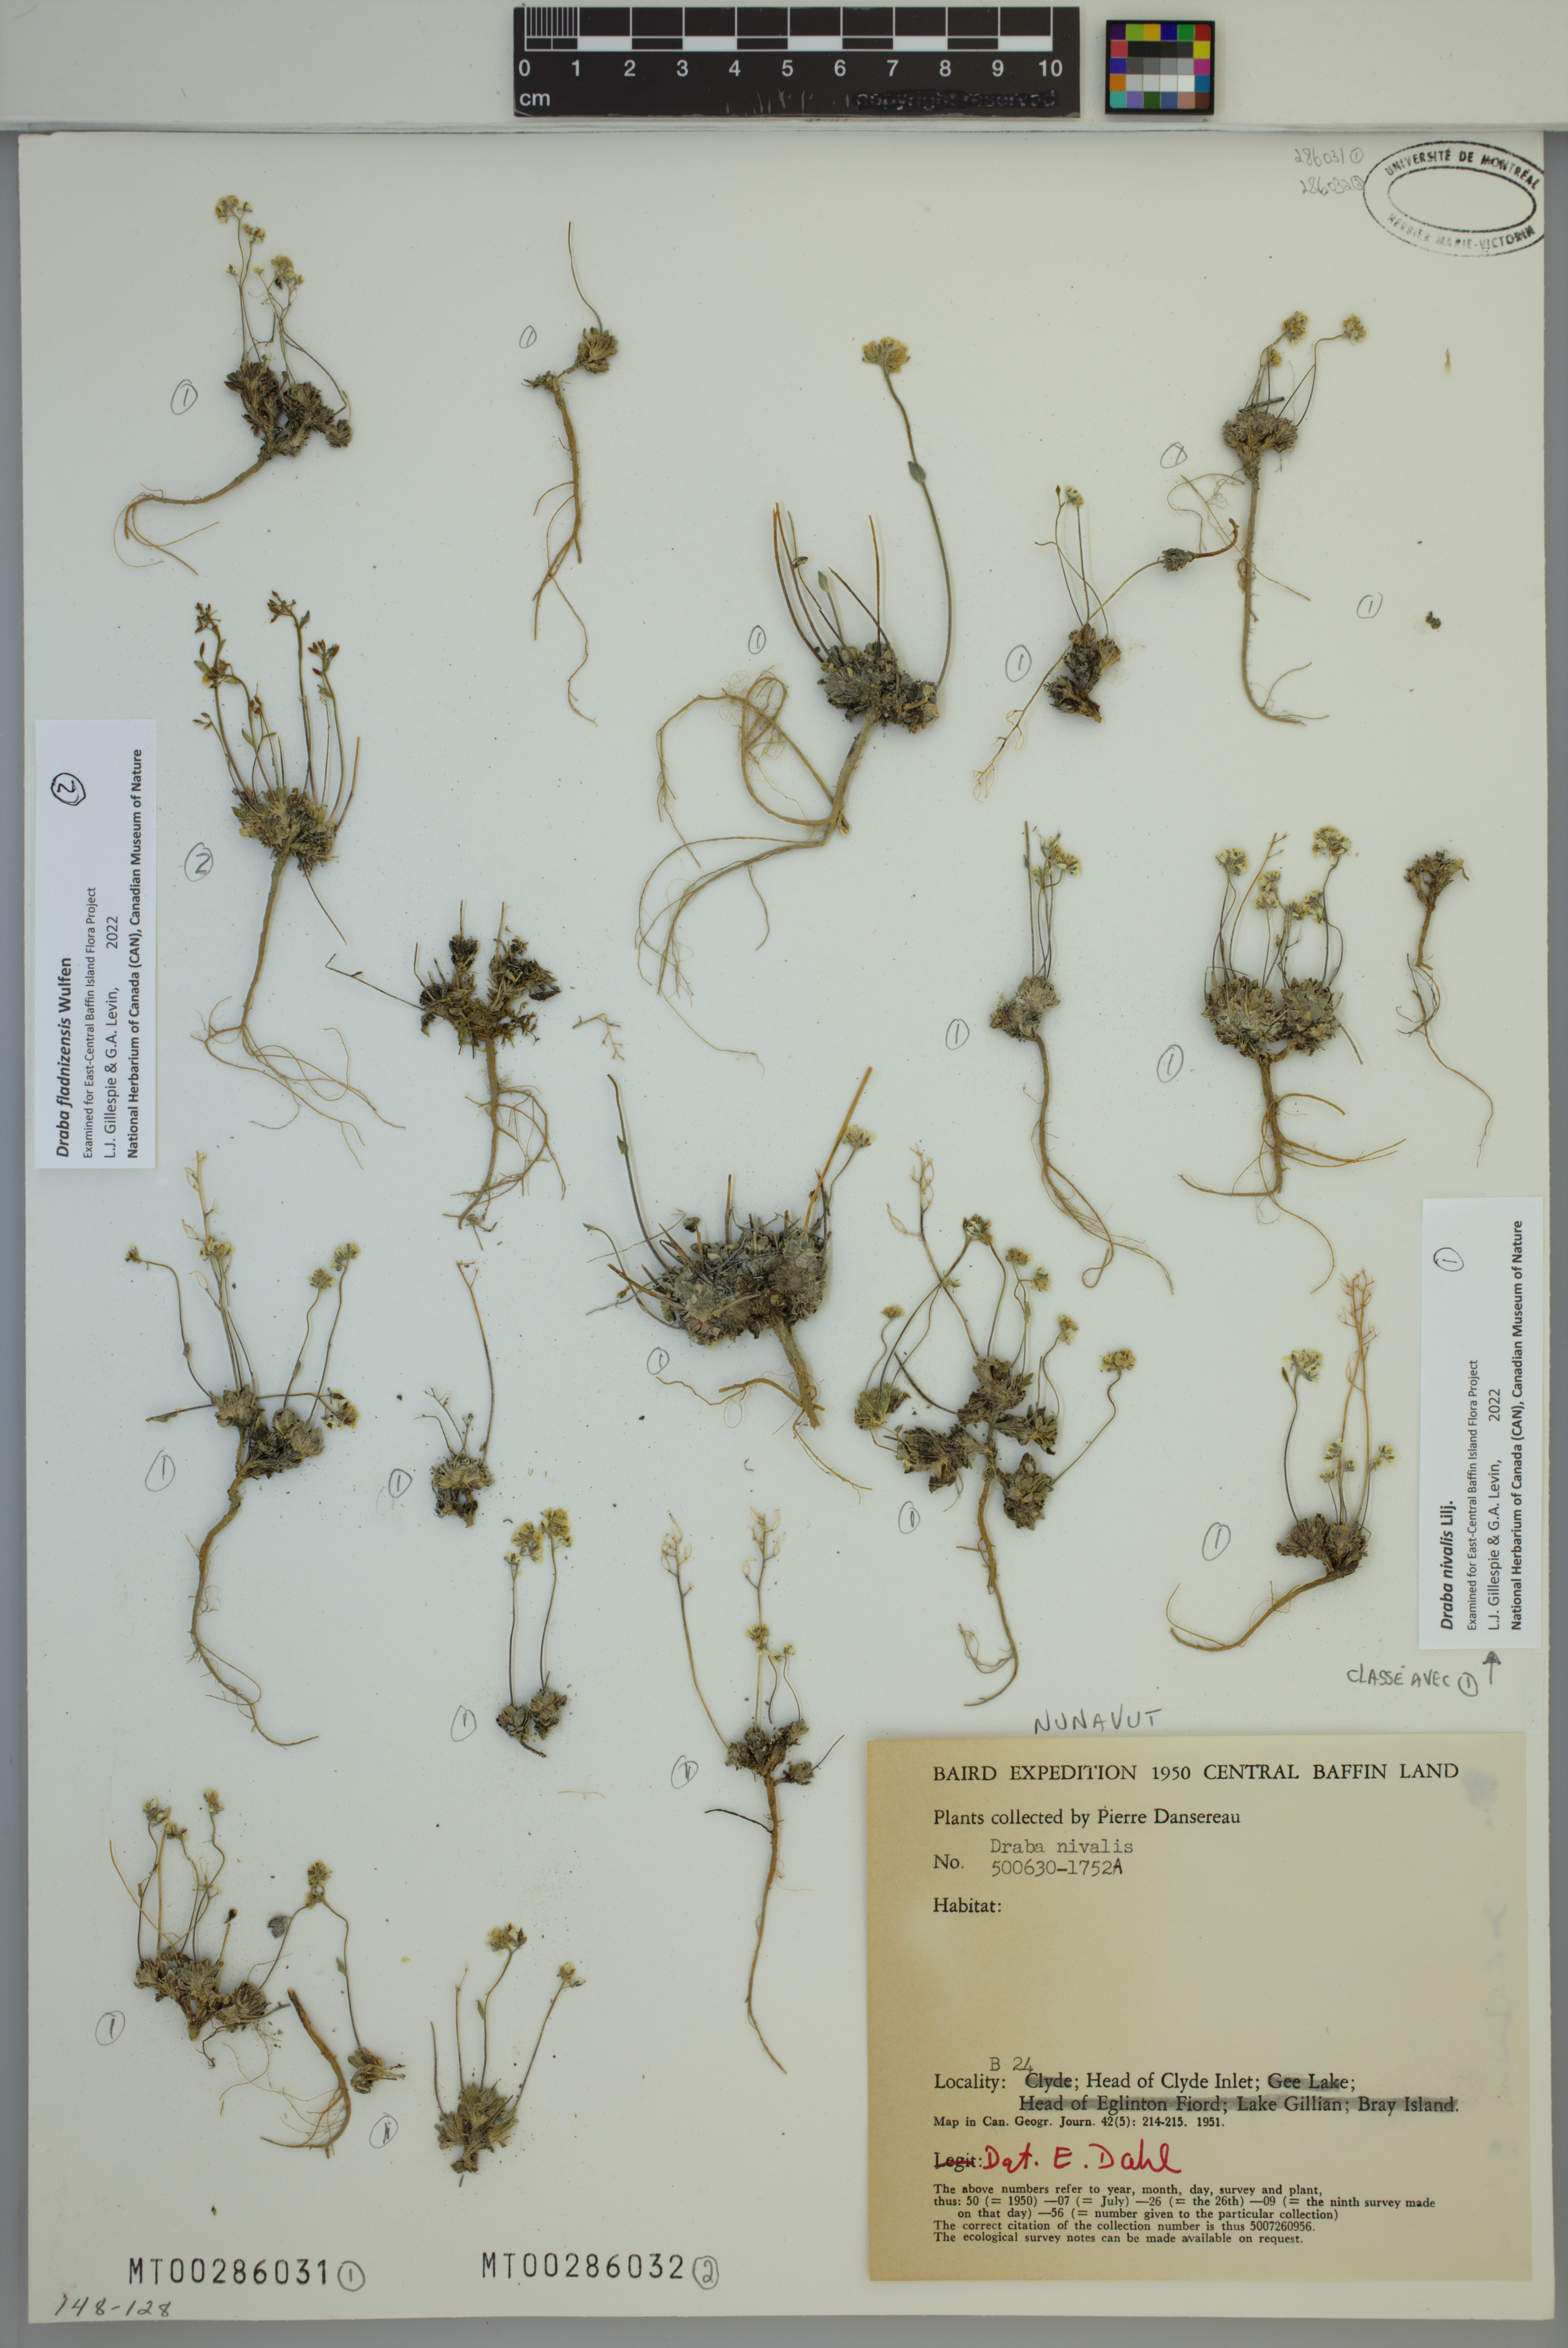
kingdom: Plantae
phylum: Tracheophyta
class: Magnoliopsida
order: Brassicales
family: Brassicaceae
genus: Draba
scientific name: Draba nivalis
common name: Snow draba
